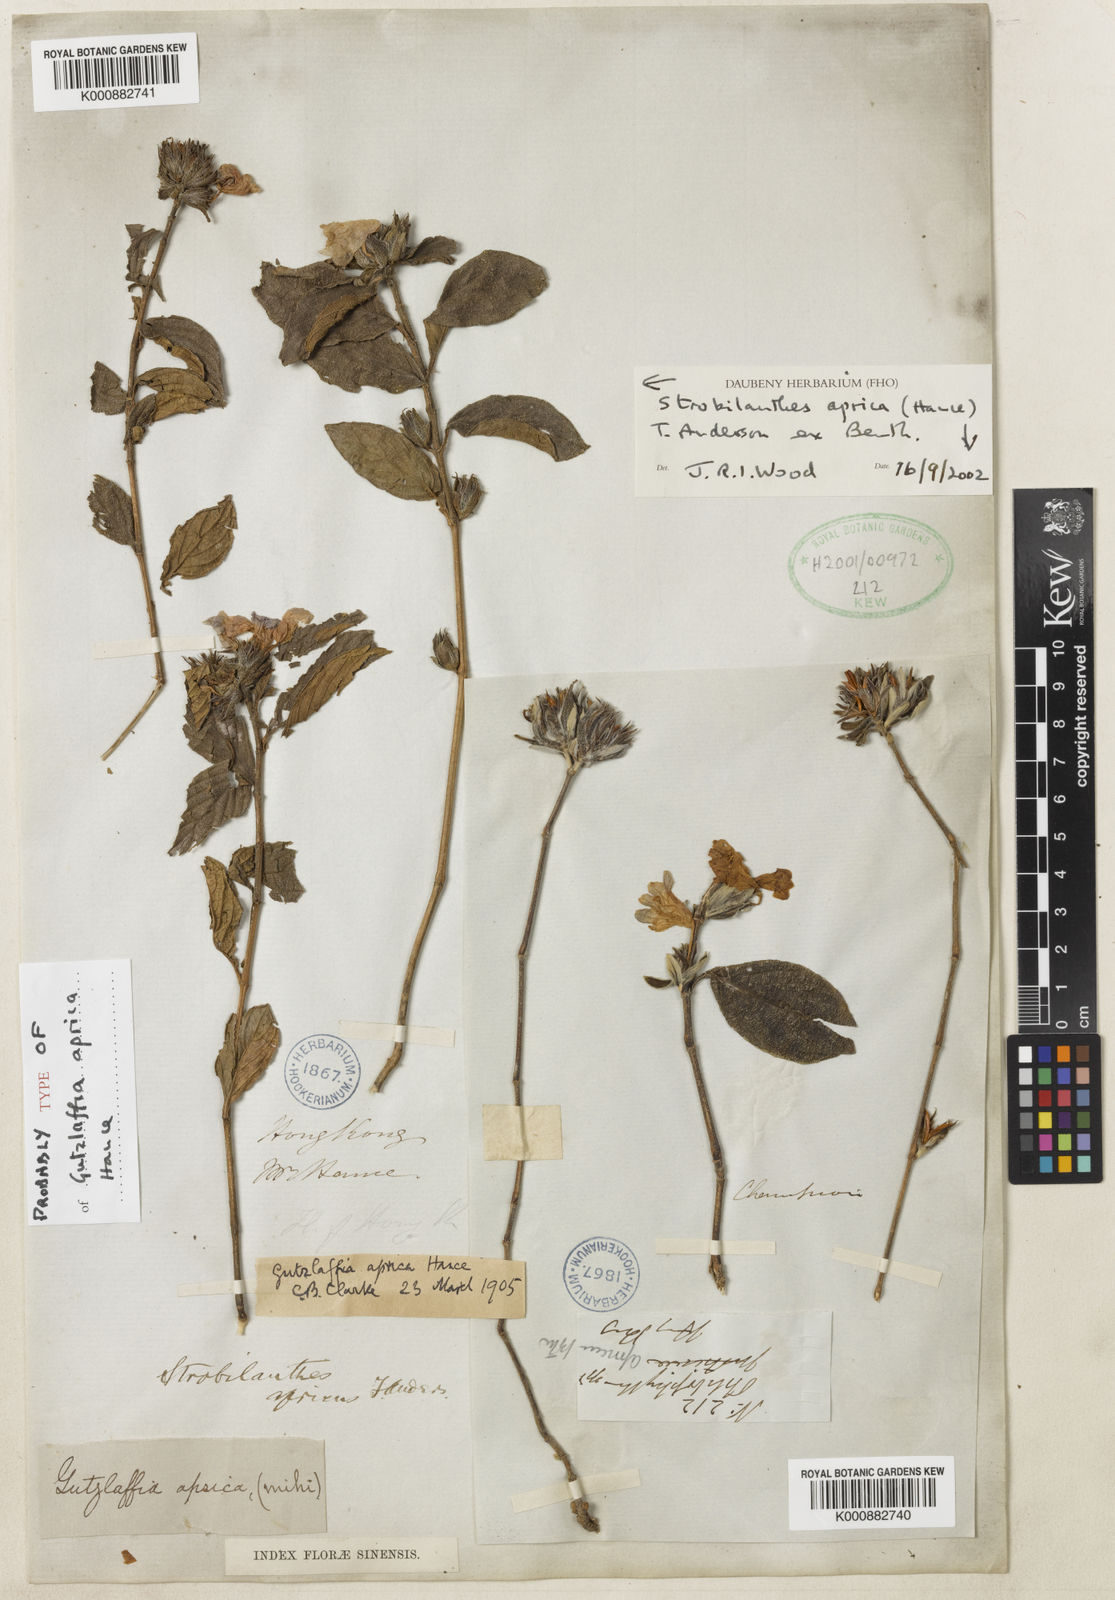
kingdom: Plantae
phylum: Tracheophyta
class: Magnoliopsida
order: Lamiales
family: Acanthaceae
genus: Strobilanthes
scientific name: Strobilanthes aprica
